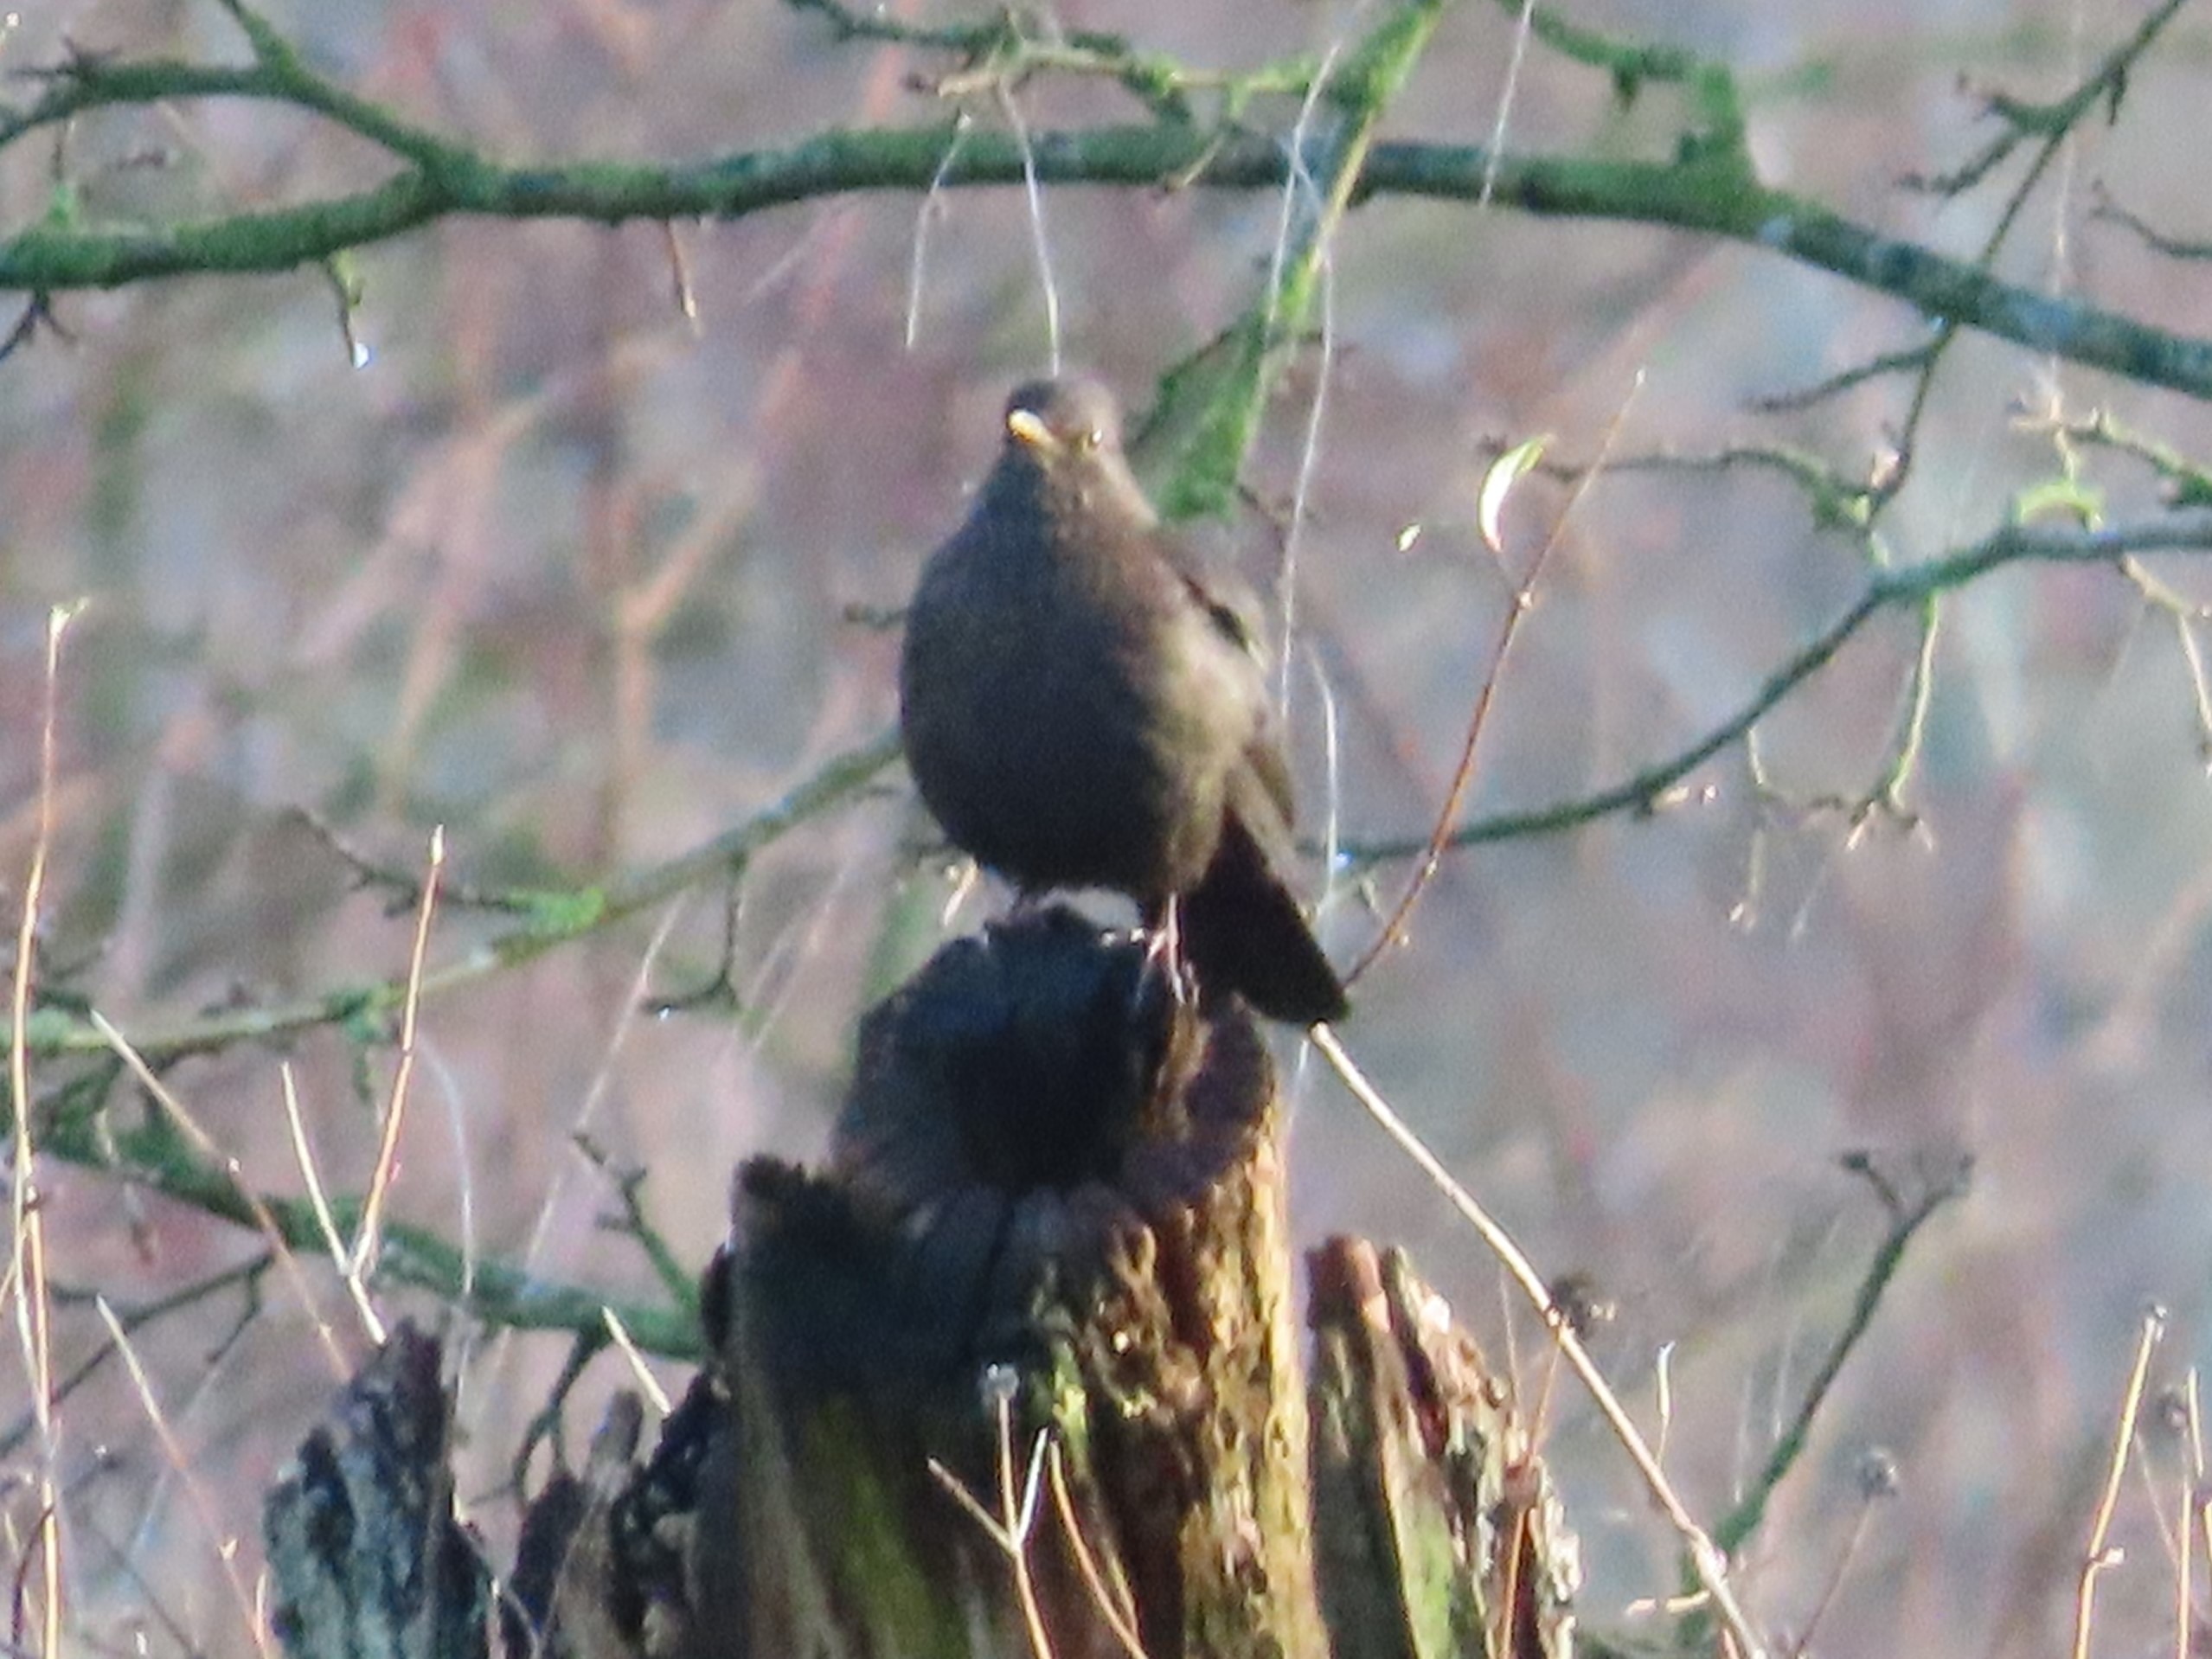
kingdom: Animalia
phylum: Chordata
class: Aves
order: Passeriformes
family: Turdidae
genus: Turdus
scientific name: Turdus merula
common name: Solsort
